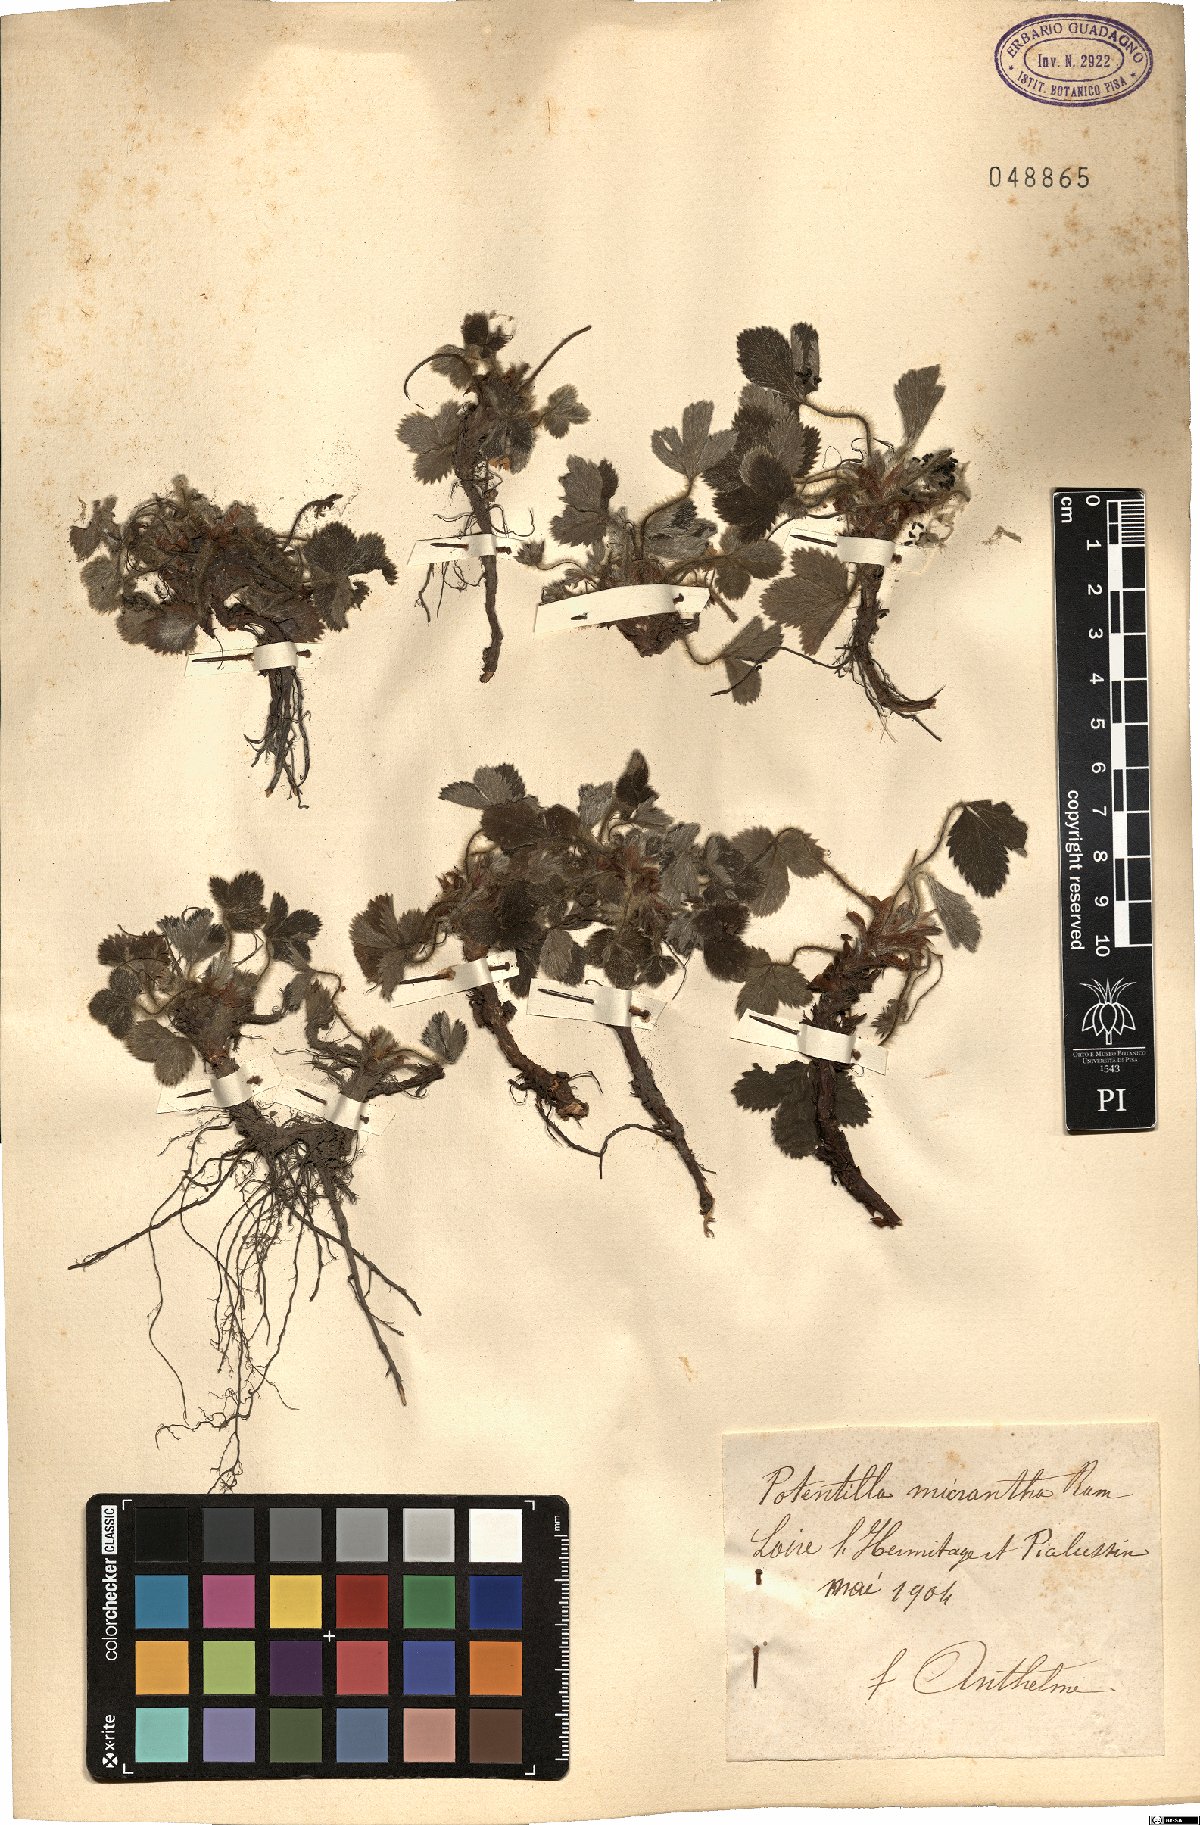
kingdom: Plantae
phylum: Tracheophyta
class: Magnoliopsida
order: Rosales
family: Rosaceae
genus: Potentilla
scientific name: Potentilla micrantha
